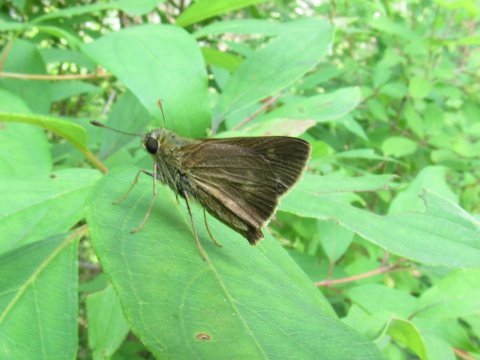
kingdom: Animalia
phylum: Arthropoda
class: Insecta
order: Lepidoptera
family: Hesperiidae
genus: Polites
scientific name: Polites egeremet
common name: Northern Broken-Dash
